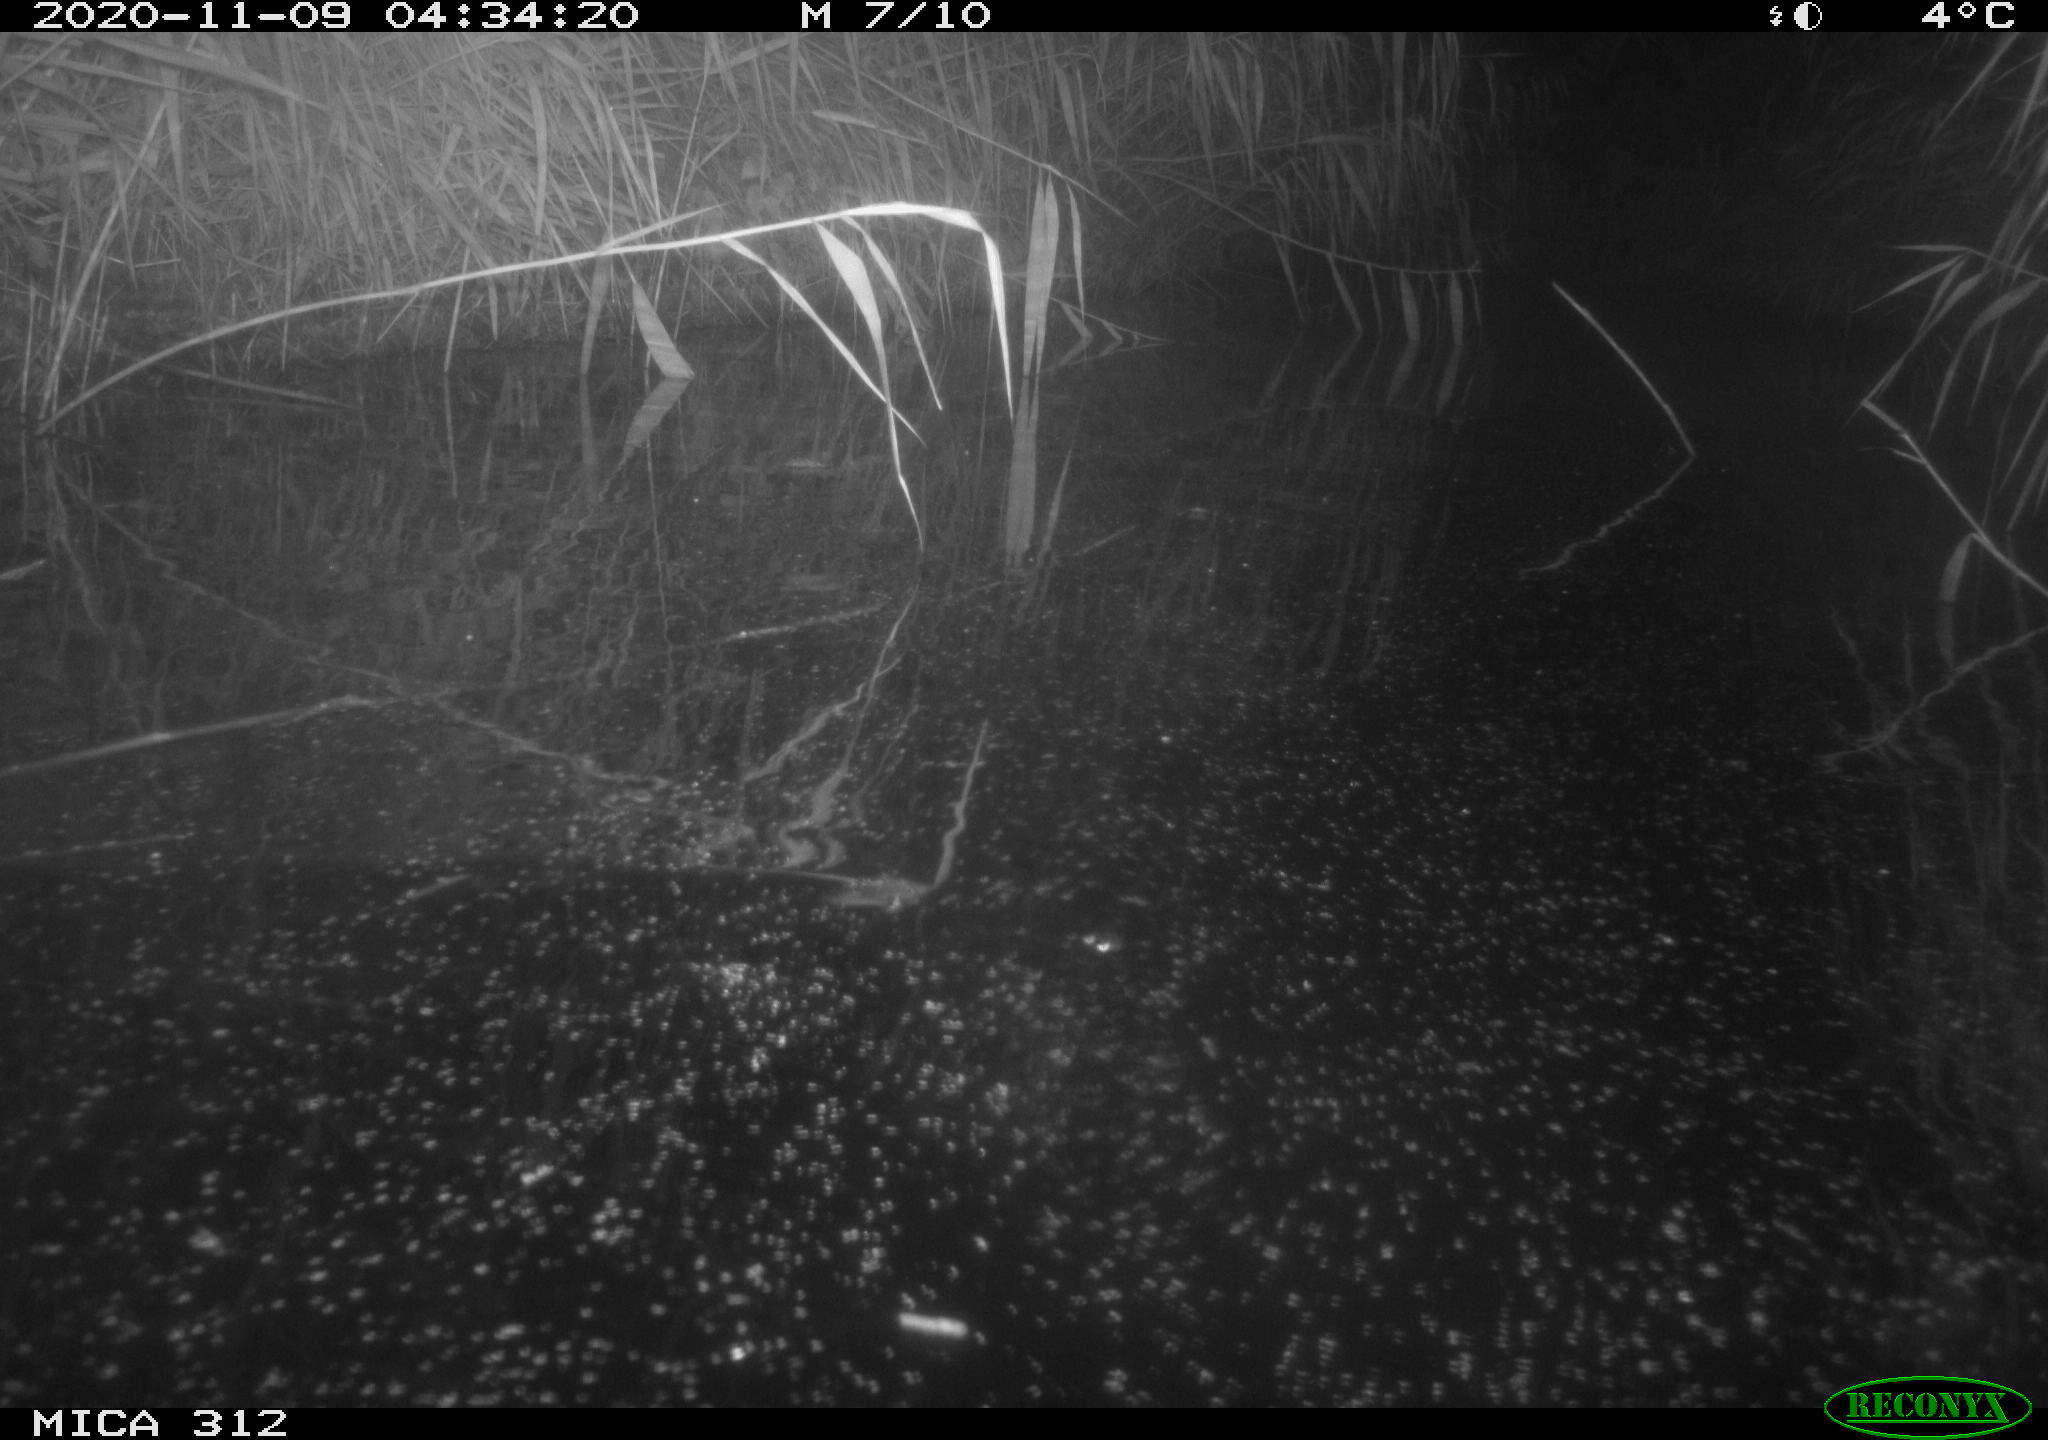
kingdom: Animalia
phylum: Chordata
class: Mammalia
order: Rodentia
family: Cricetidae
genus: Ondatra
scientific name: Ondatra zibethicus
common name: Muskrat
